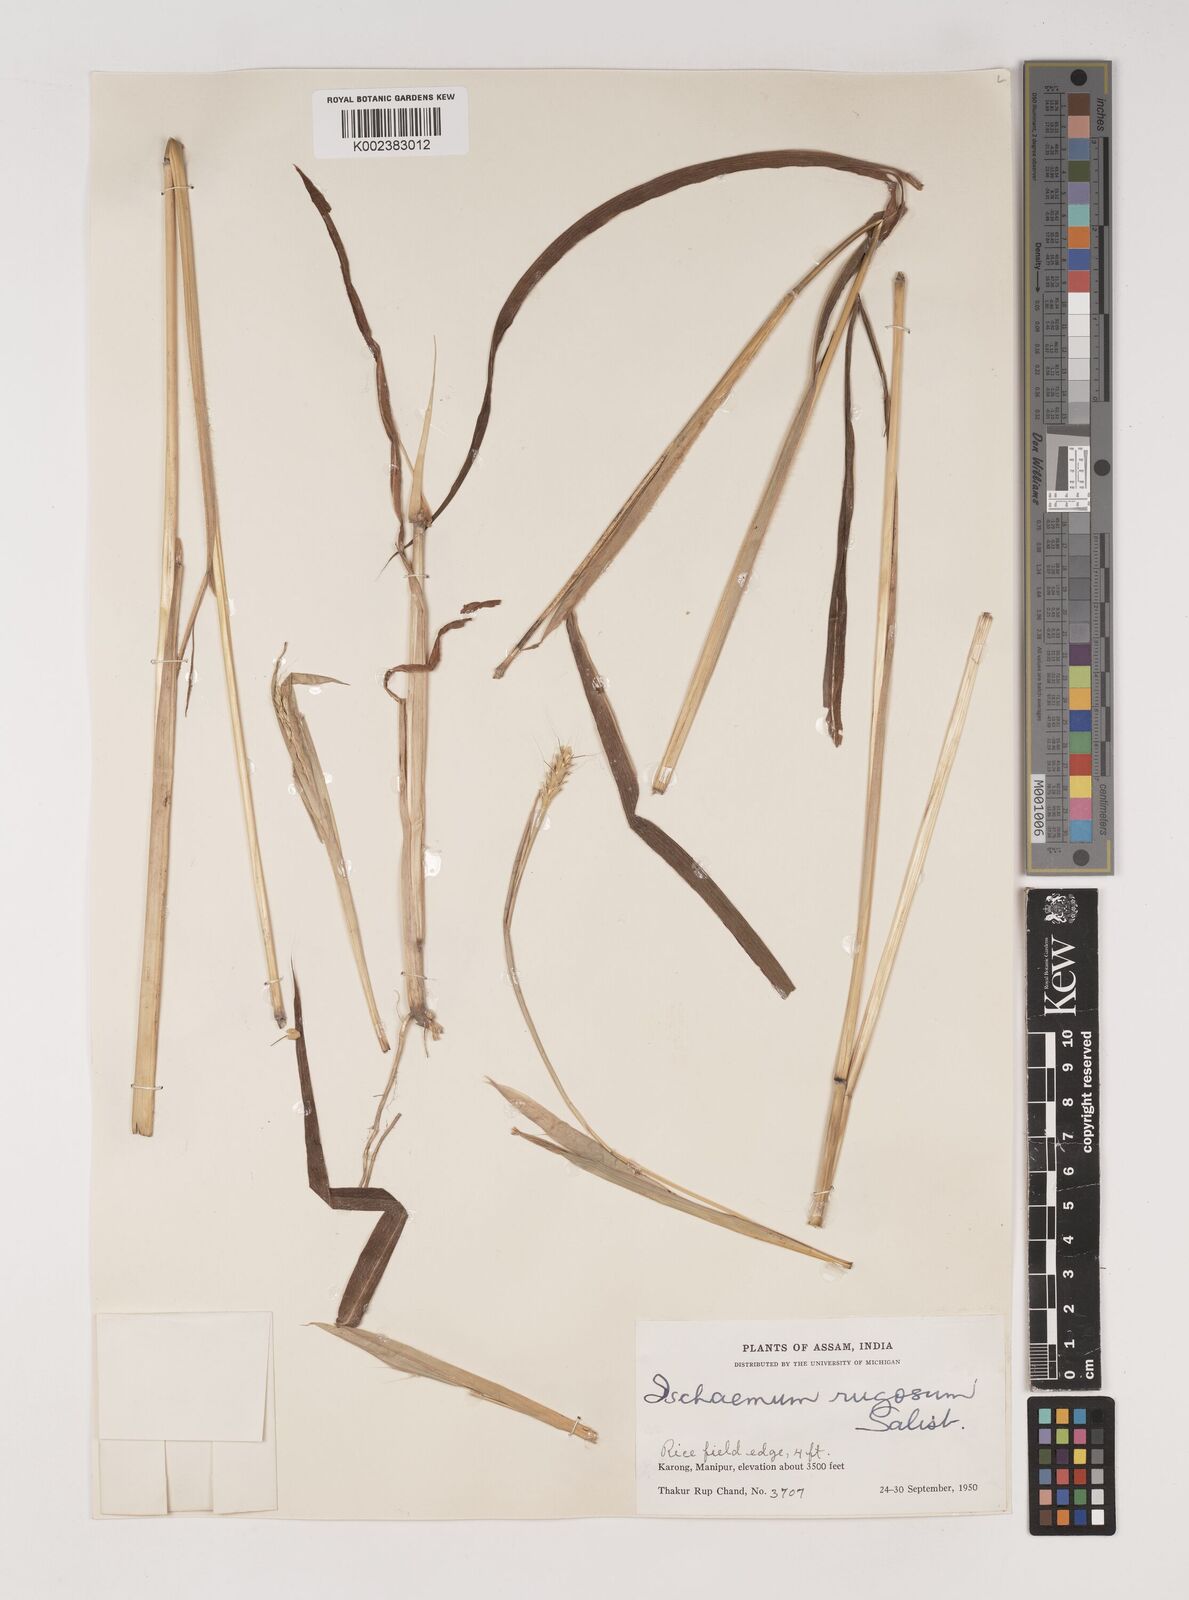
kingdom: Plantae
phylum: Tracheophyta
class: Liliopsida
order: Poales
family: Poaceae
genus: Ischaemum
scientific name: Ischaemum rugosum
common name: Saramatta grass
